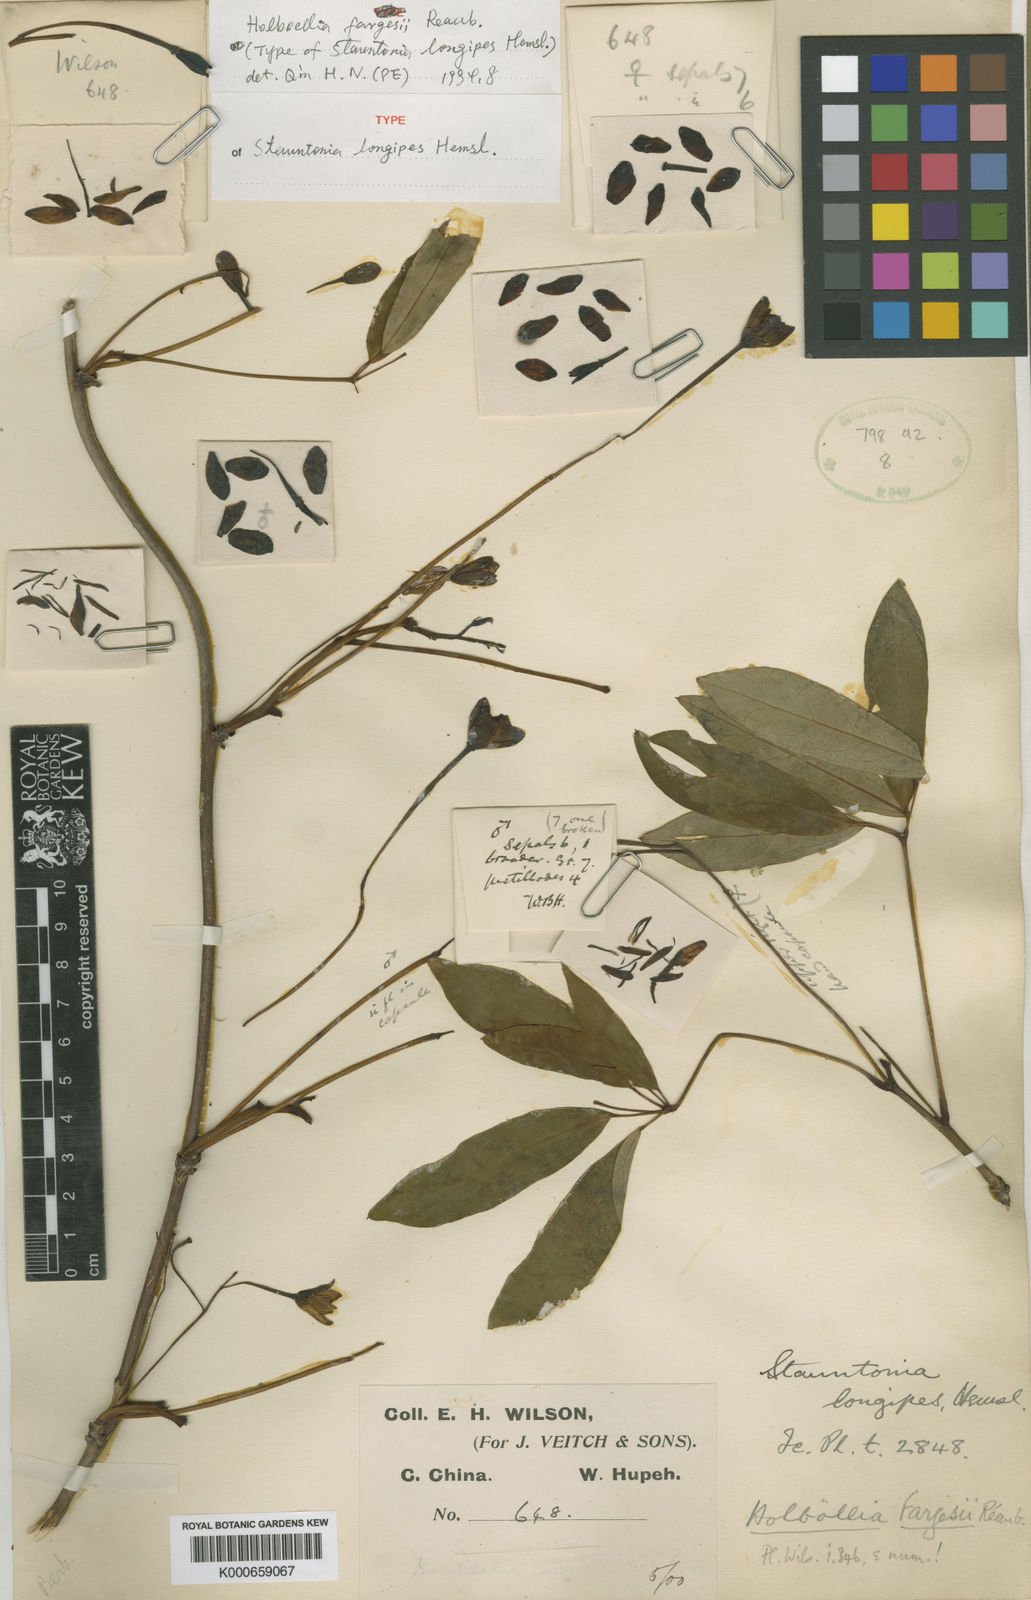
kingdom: Plantae
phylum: Tracheophyta
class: Magnoliopsida
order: Ranunculales
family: Lardizabalaceae
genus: Stauntonia
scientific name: Stauntonia angustifolia
